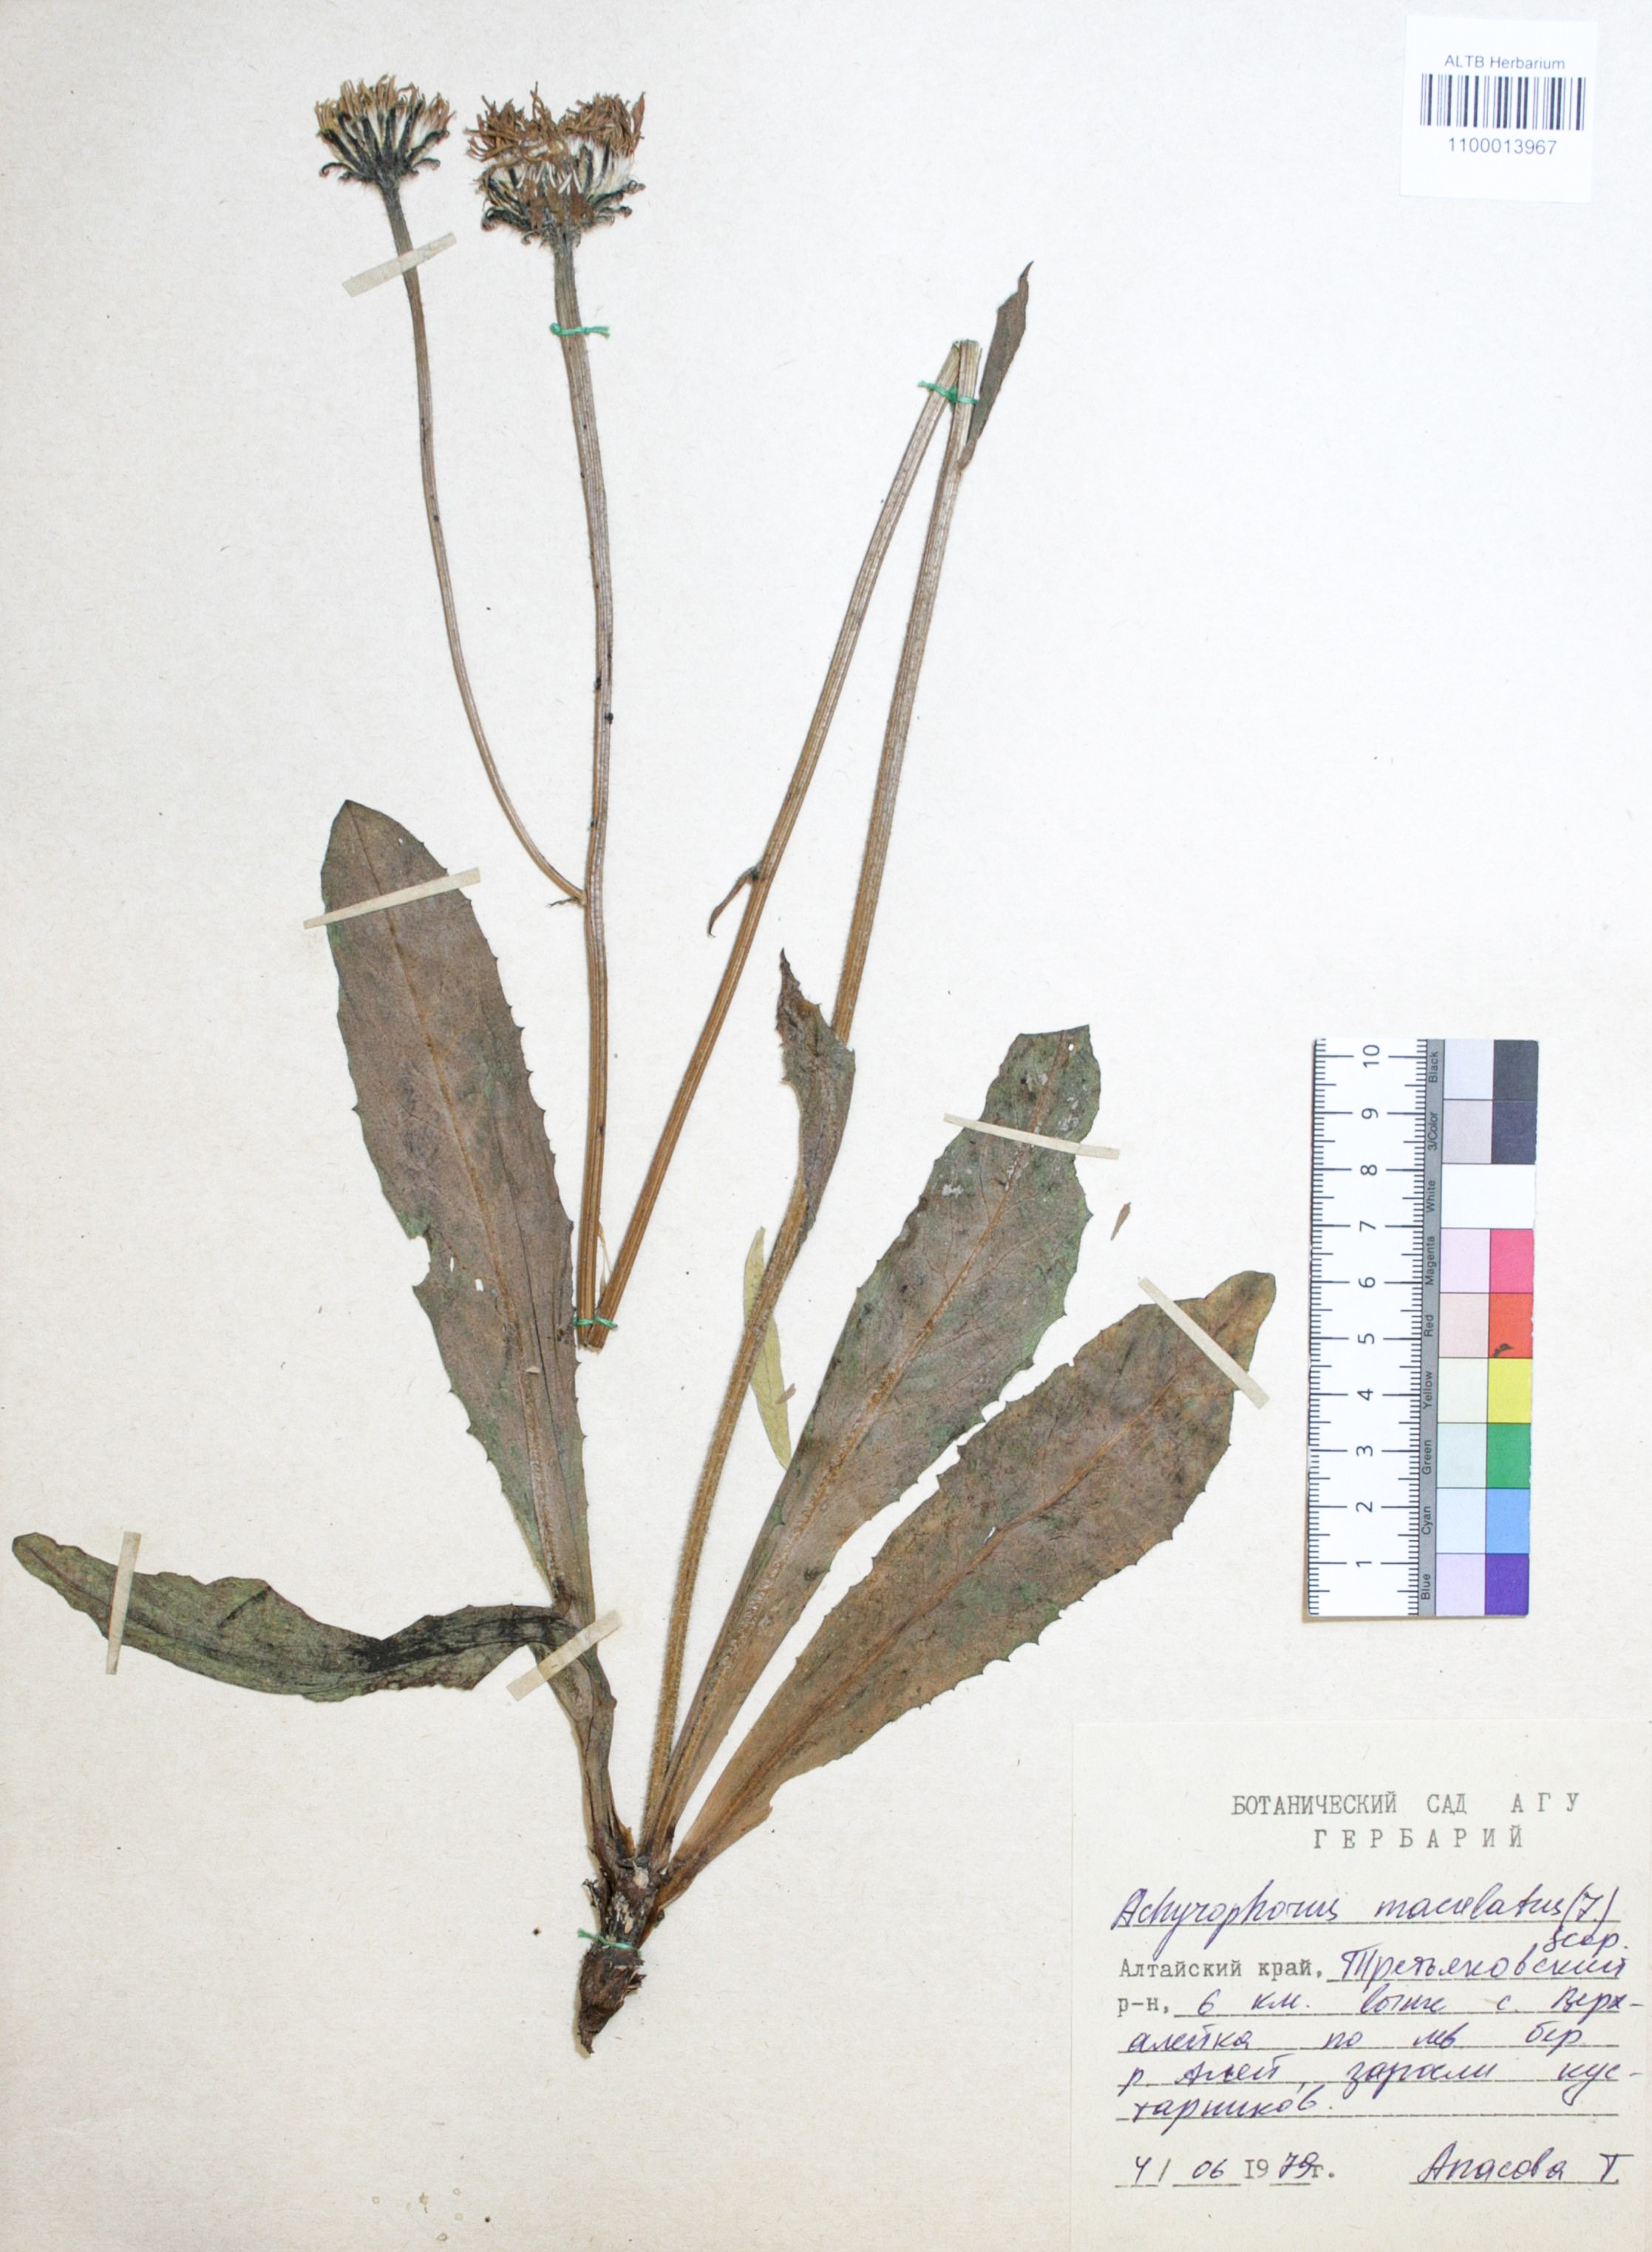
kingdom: Plantae
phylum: Tracheophyta
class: Magnoliopsida
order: Asterales
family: Asteraceae
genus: Trommsdorffia
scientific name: Trommsdorffia maculata
